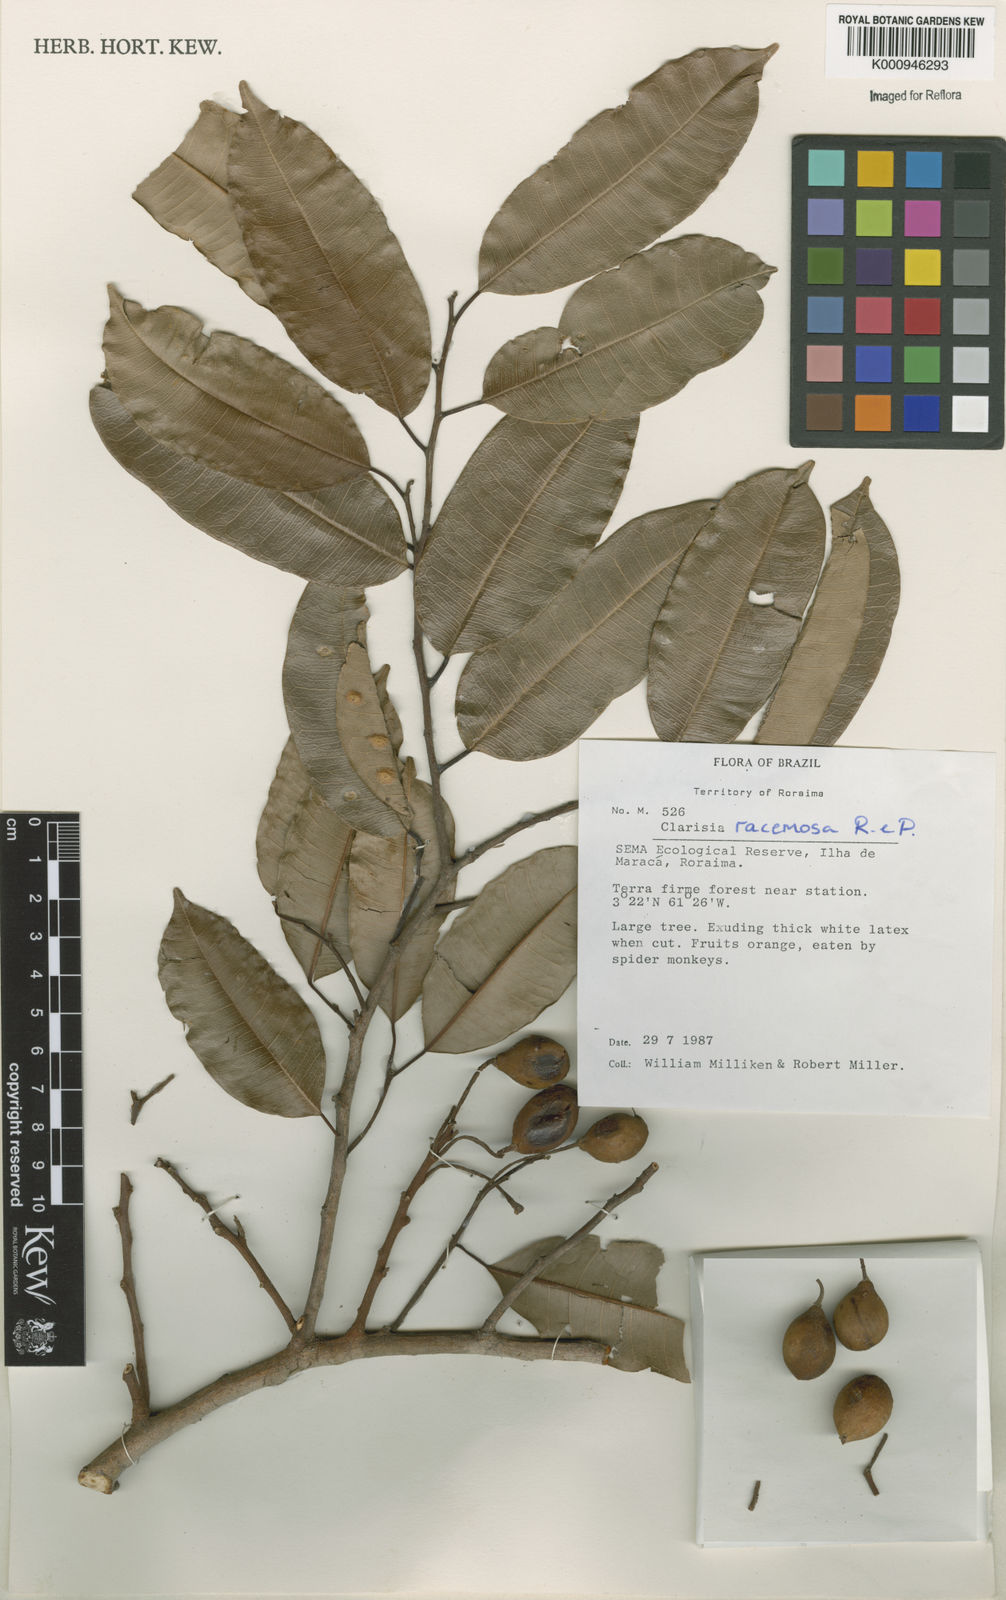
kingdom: Plantae
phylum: Tracheophyta
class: Magnoliopsida
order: Rosales
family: Moraceae
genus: Clarisia
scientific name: Clarisia racemosa
